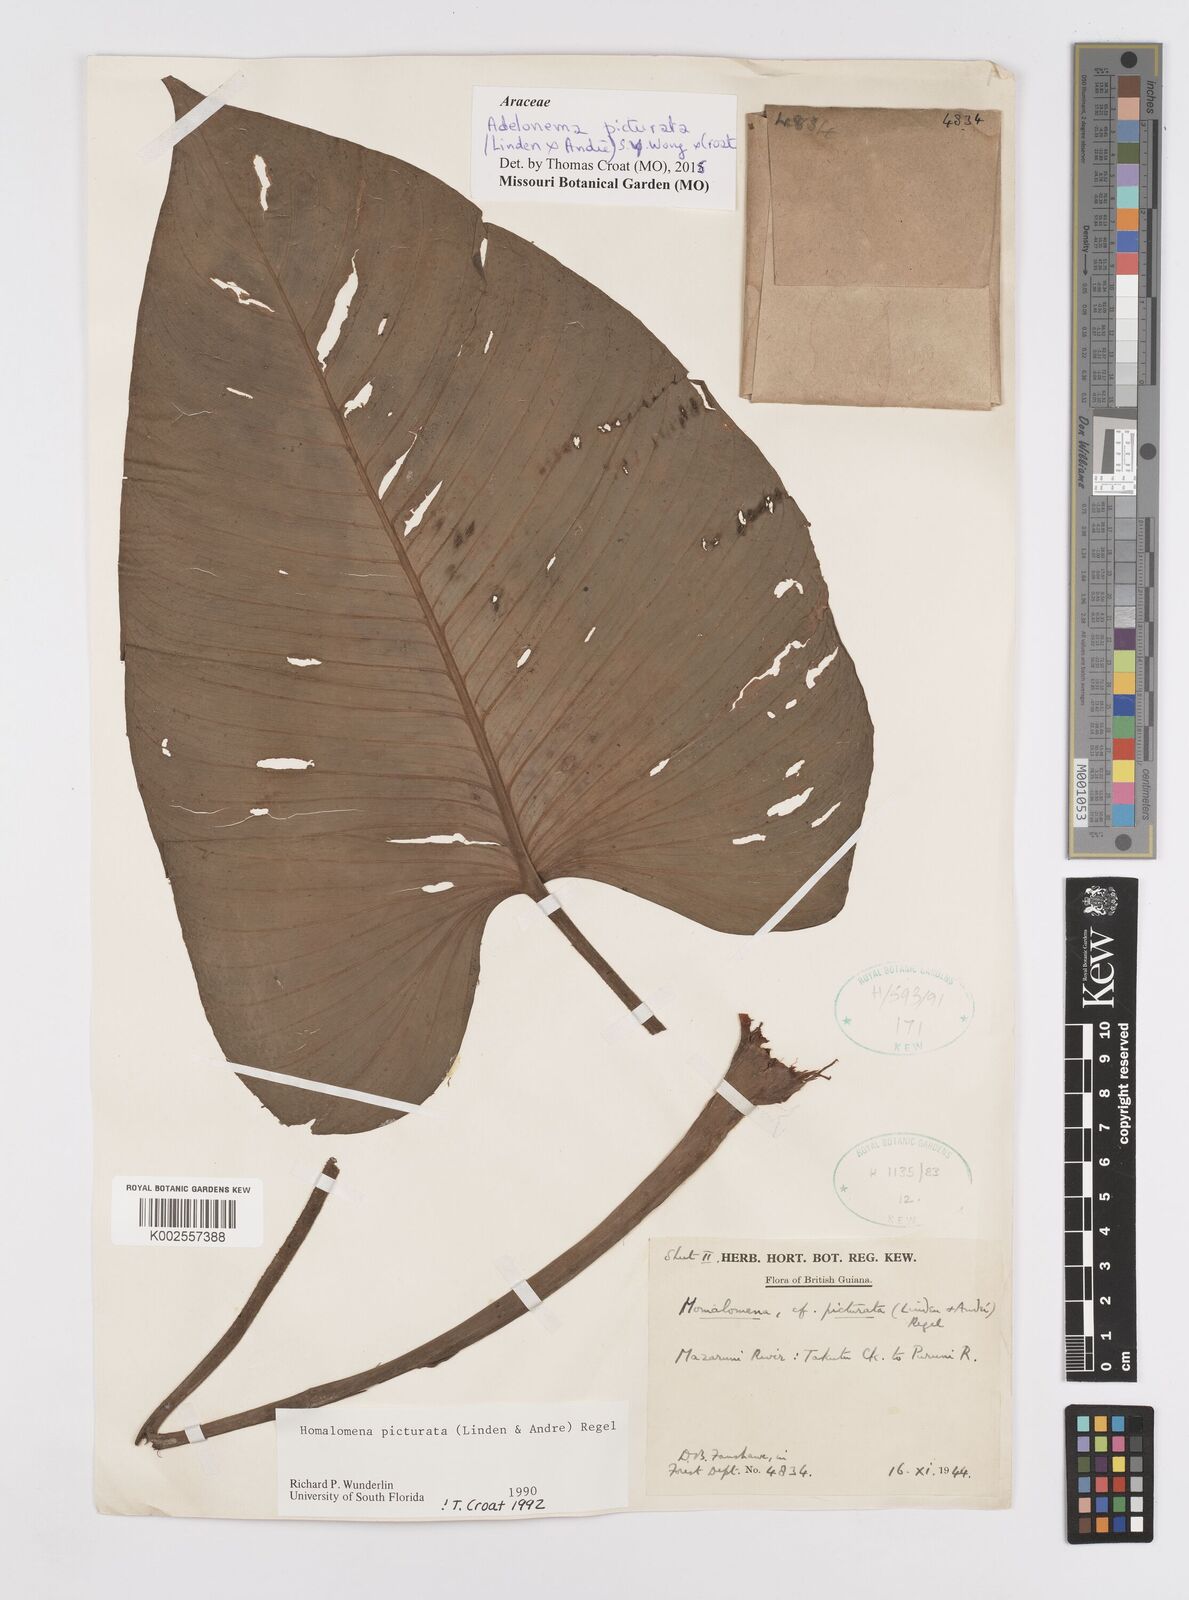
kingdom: Plantae
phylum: Tracheophyta
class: Liliopsida
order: Alismatales
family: Araceae
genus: Adelonema
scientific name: Adelonema picturatum
